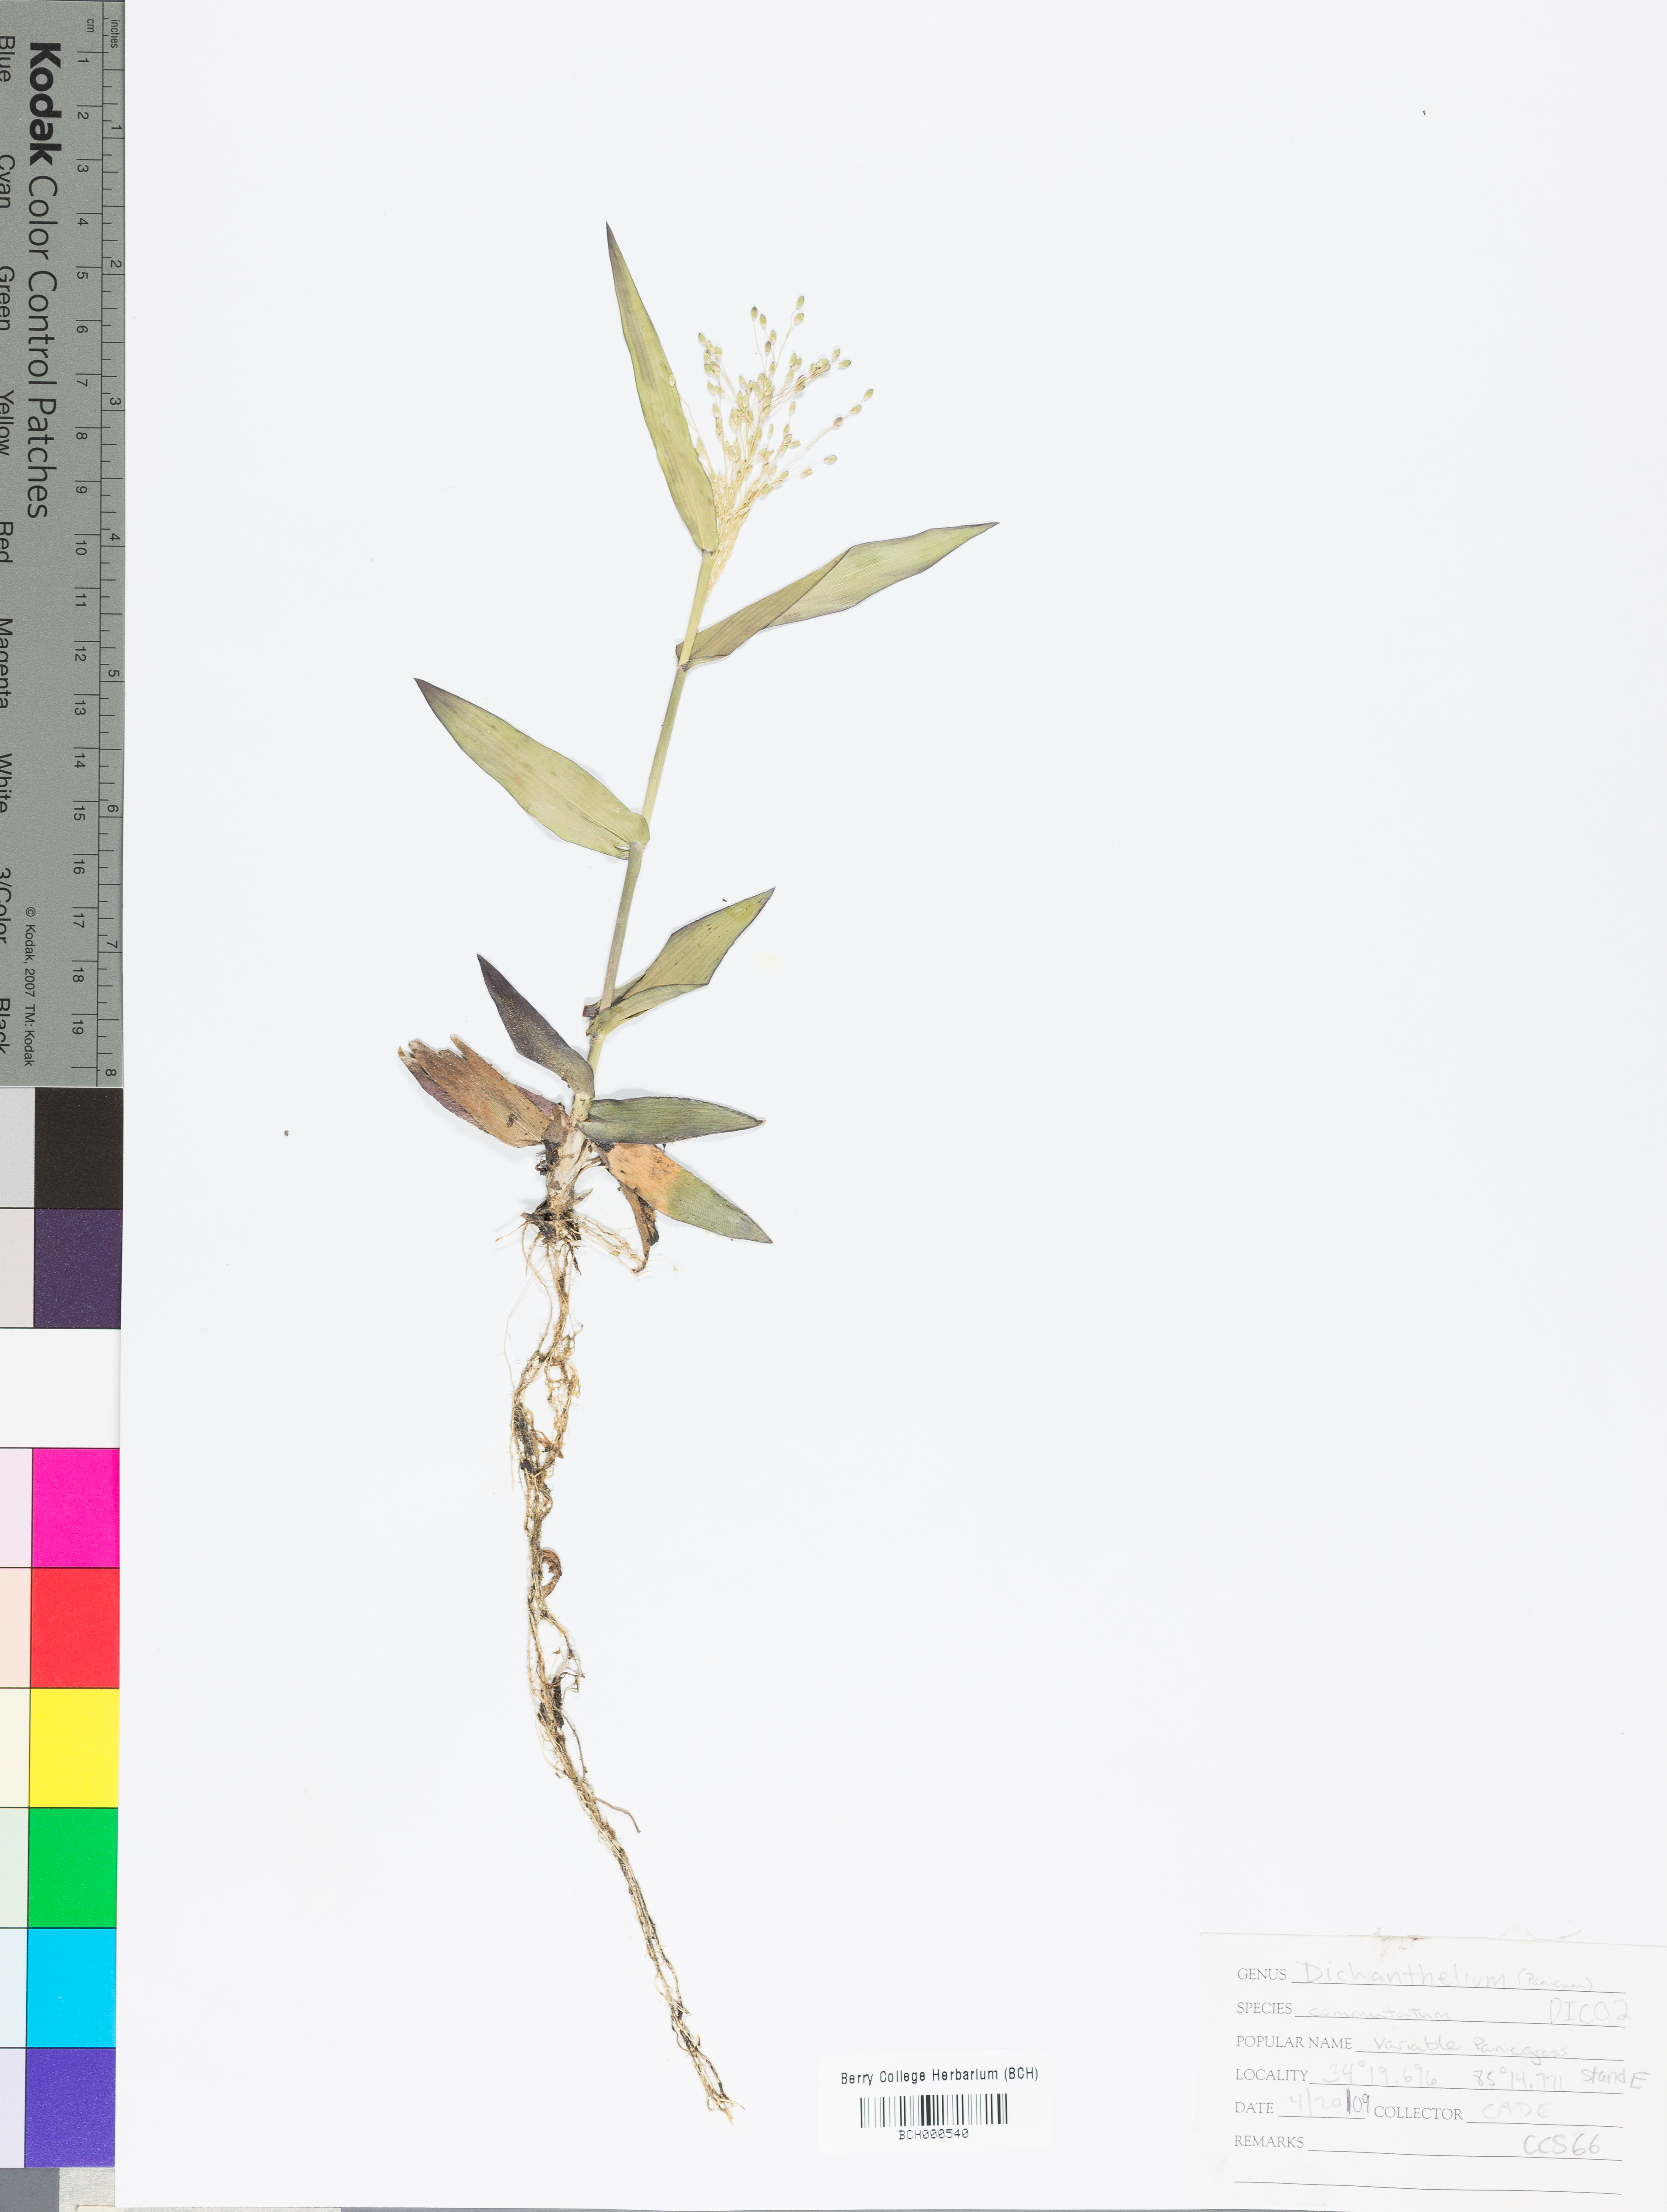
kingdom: Plantae
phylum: Tracheophyta
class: Liliopsida
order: Poales
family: Poaceae
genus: Dichanthelium
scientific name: Dichanthelium commutatum
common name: Variable witchgrass
